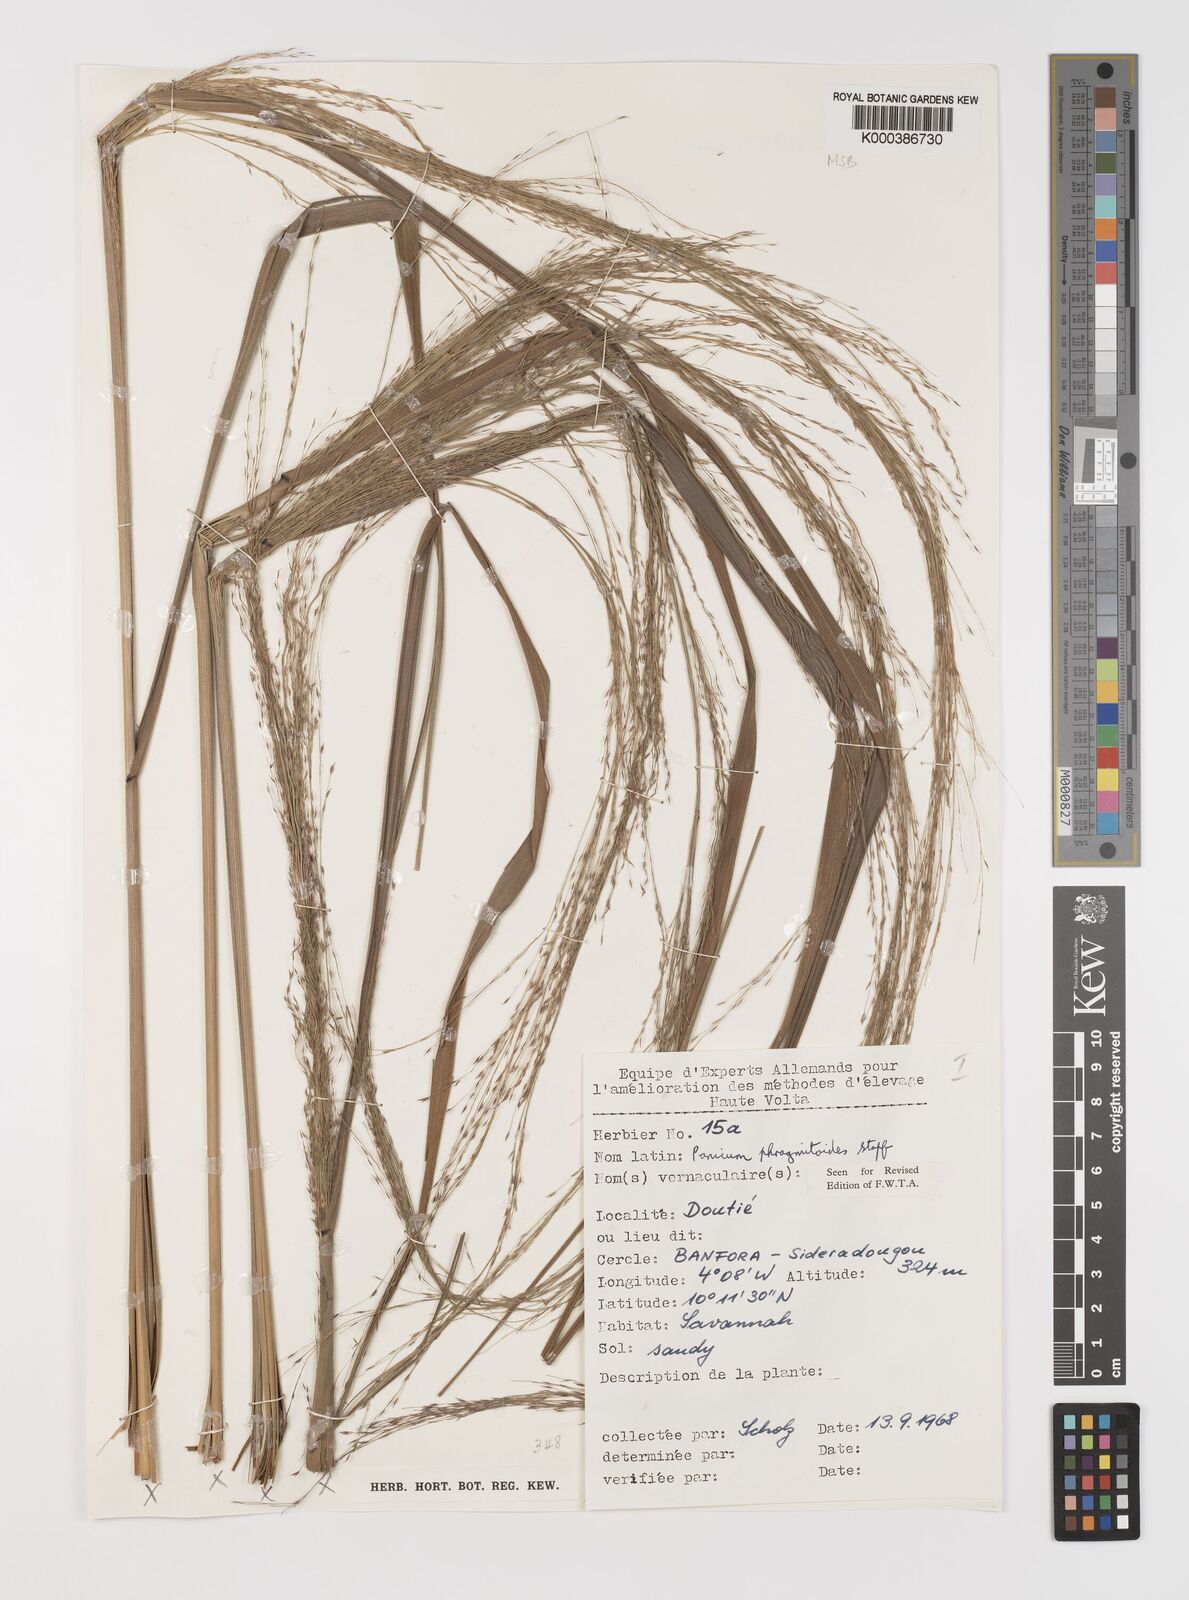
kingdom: Plantae
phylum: Tracheophyta
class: Liliopsida
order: Poales
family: Poaceae
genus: Panicum
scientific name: Panicum phragmitoides
